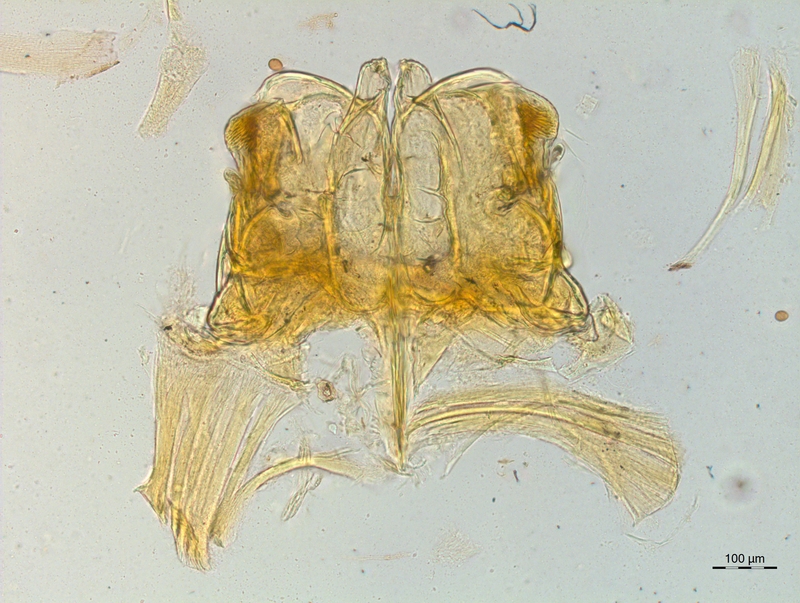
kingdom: Animalia
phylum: Arthropoda
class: Diplopoda
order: Chordeumatida
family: Craspedosomatidae
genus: Craspedosoma
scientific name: Craspedosoma taurinorum
